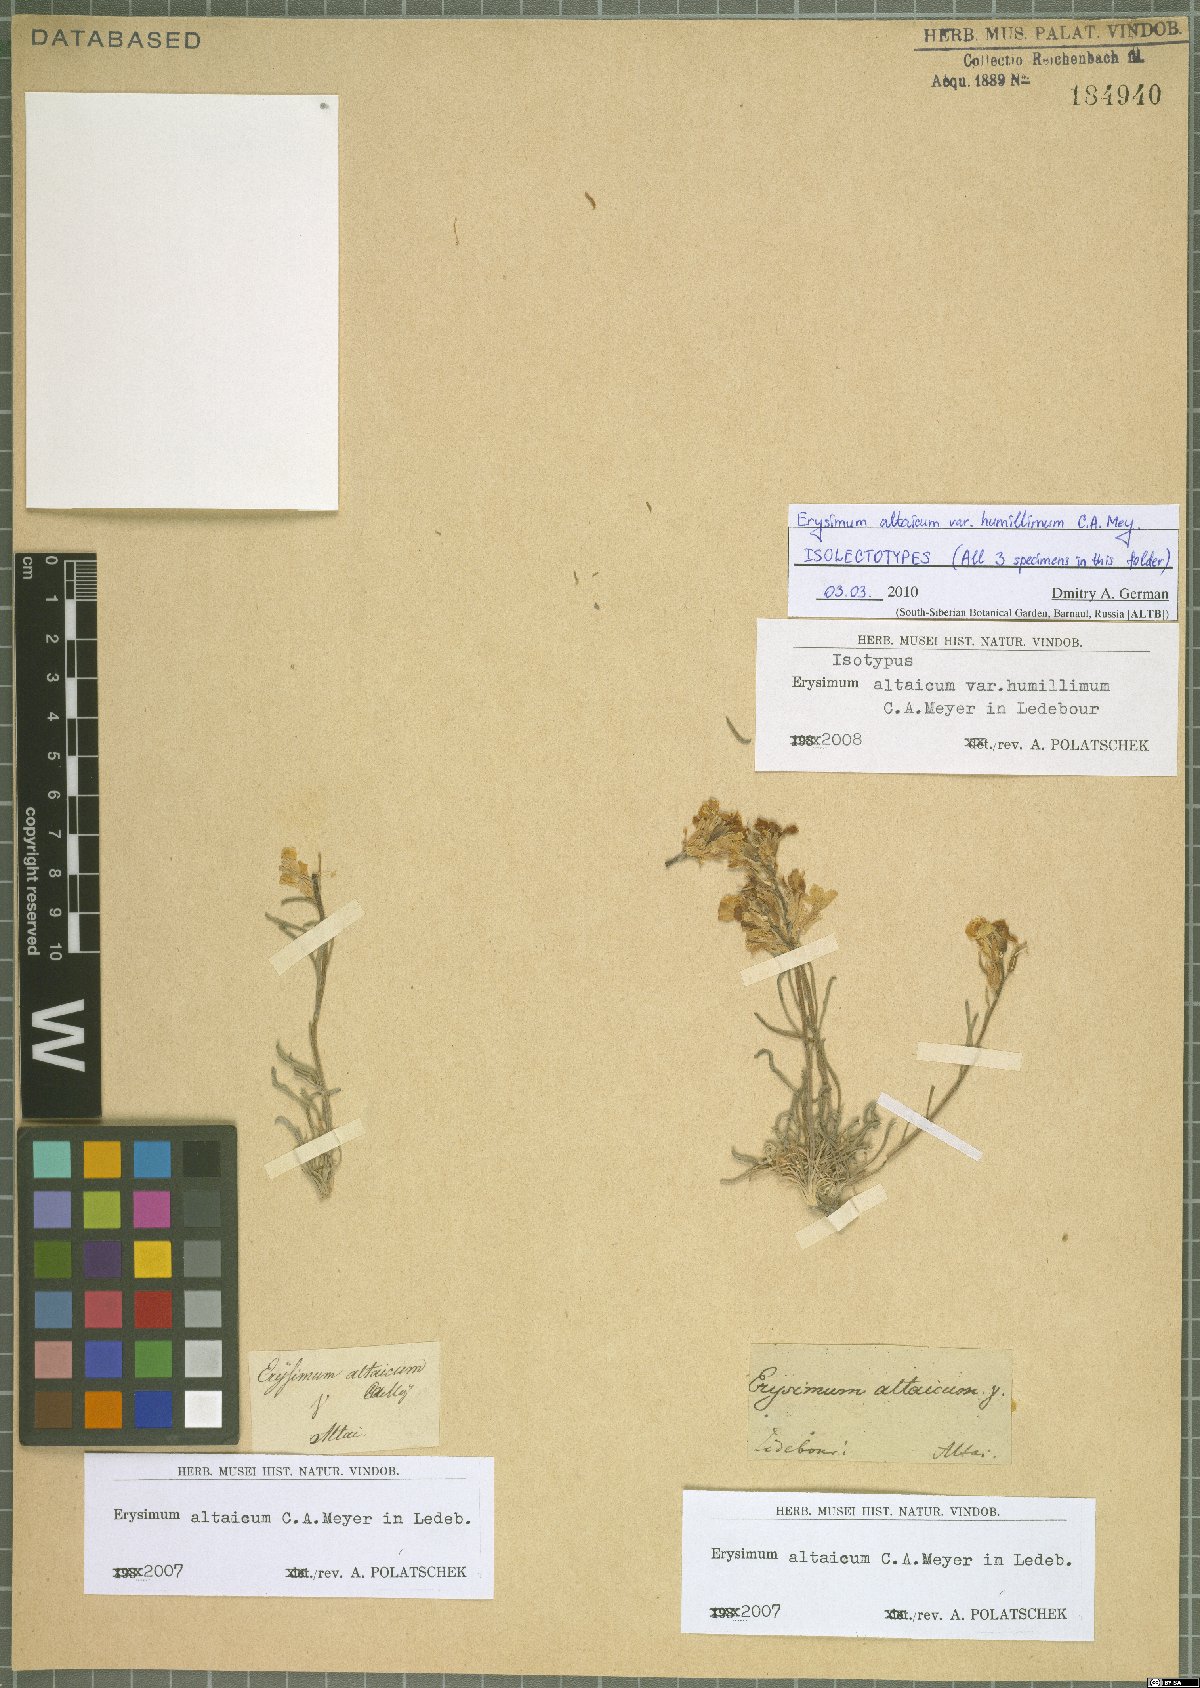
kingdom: Plantae
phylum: Tracheophyta
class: Magnoliopsida
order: Brassicales
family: Brassicaceae
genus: Erysimum
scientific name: Erysimum altaicum
